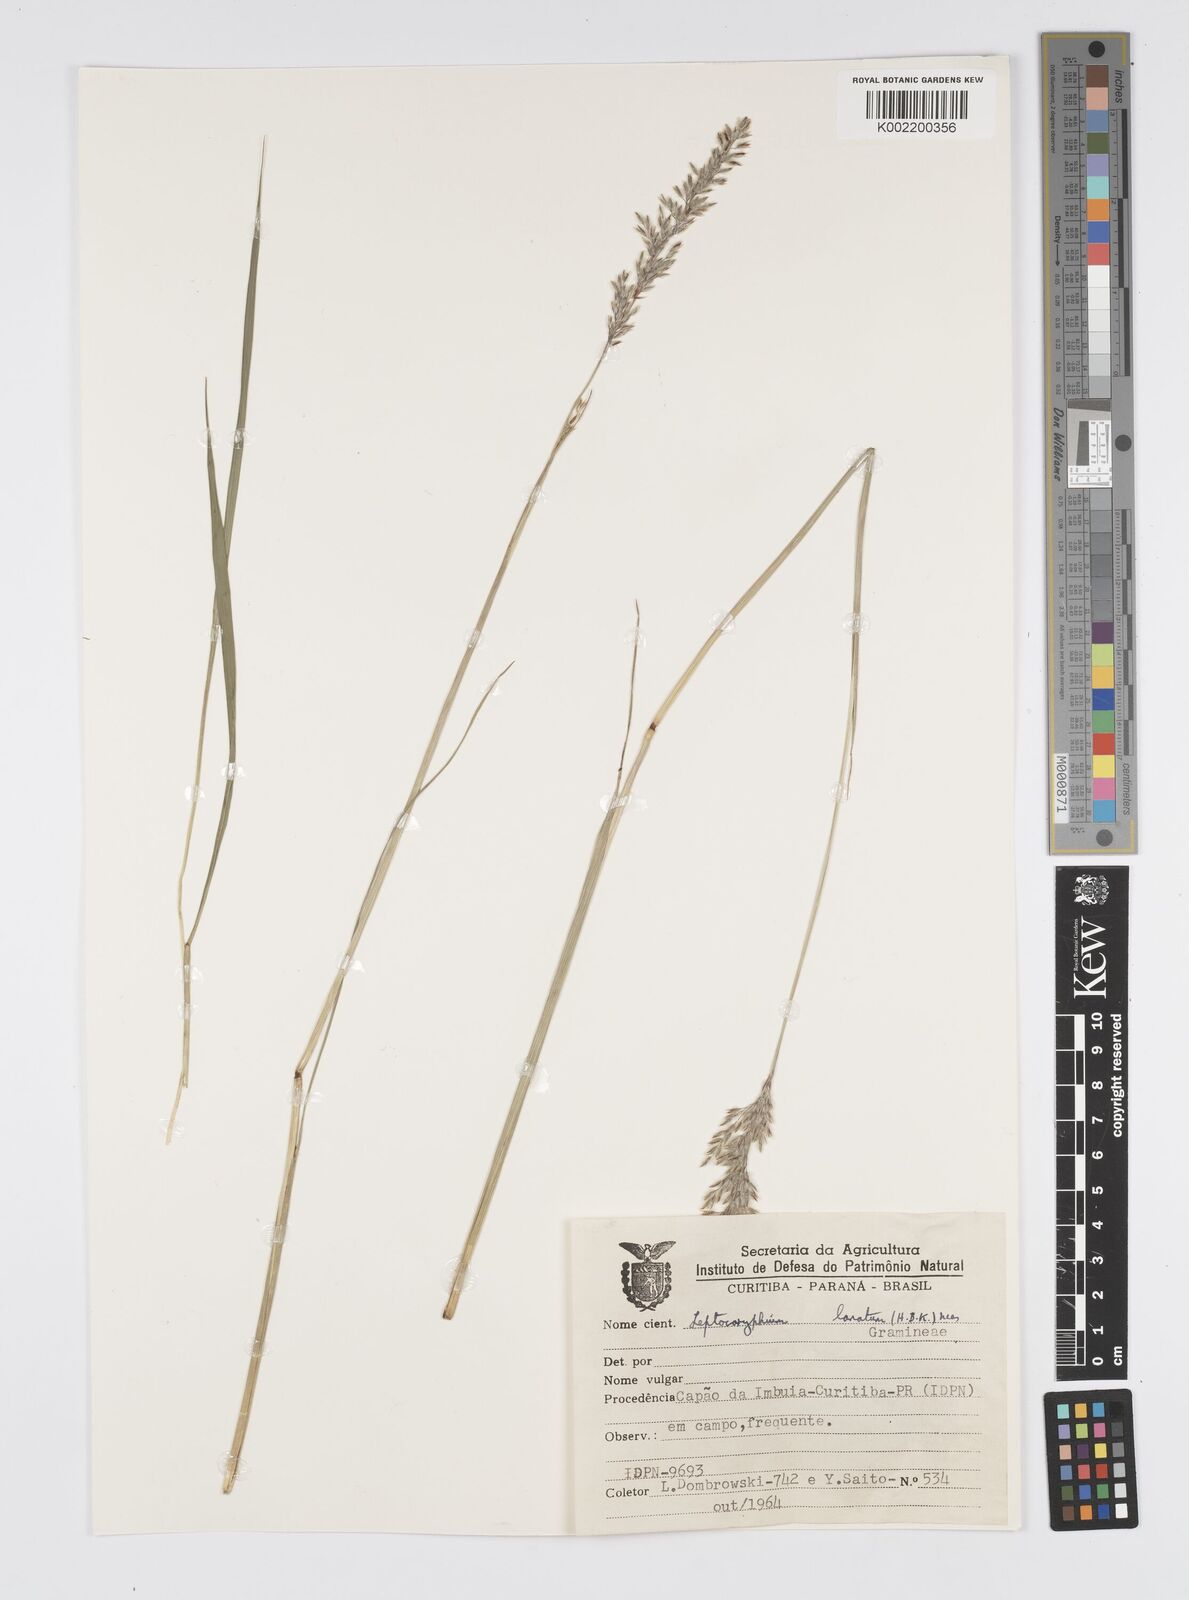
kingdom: Plantae
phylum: Tracheophyta
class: Liliopsida
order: Poales
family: Poaceae
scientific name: Poaceae
